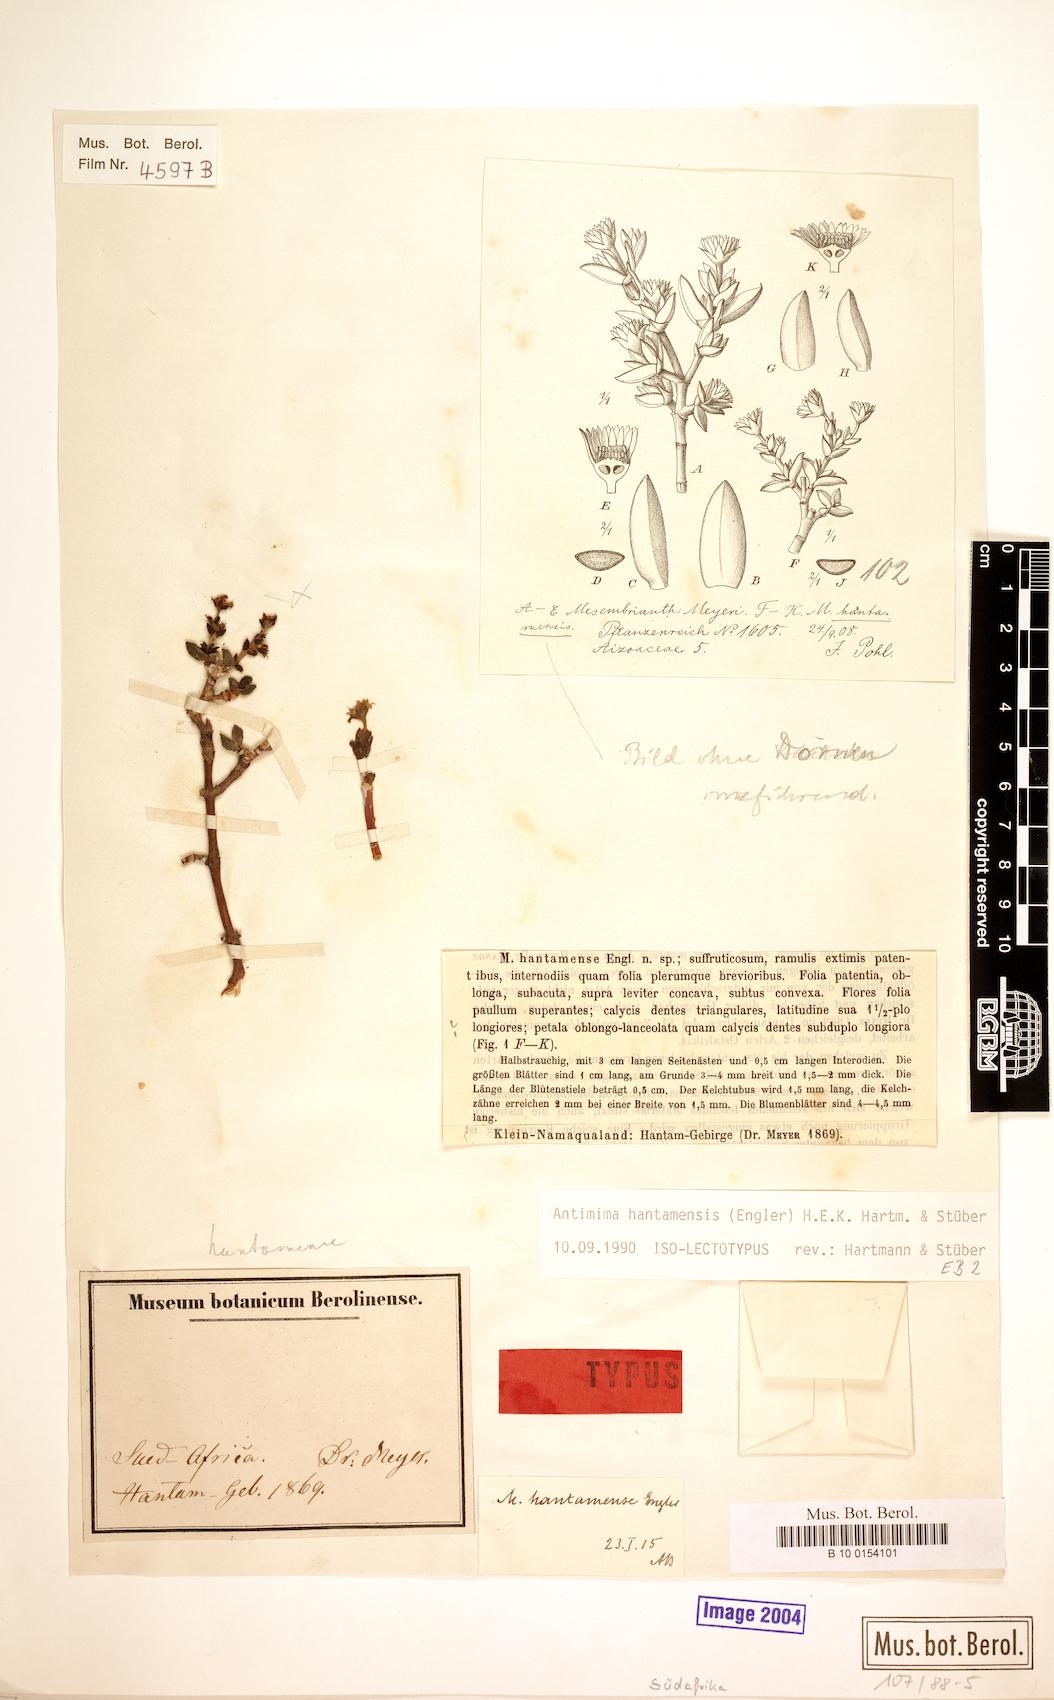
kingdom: Plantae
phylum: Tracheophyta
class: Magnoliopsida
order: Caryophyllales
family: Aizoaceae
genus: Antimima
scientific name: Antimima hantamensis
